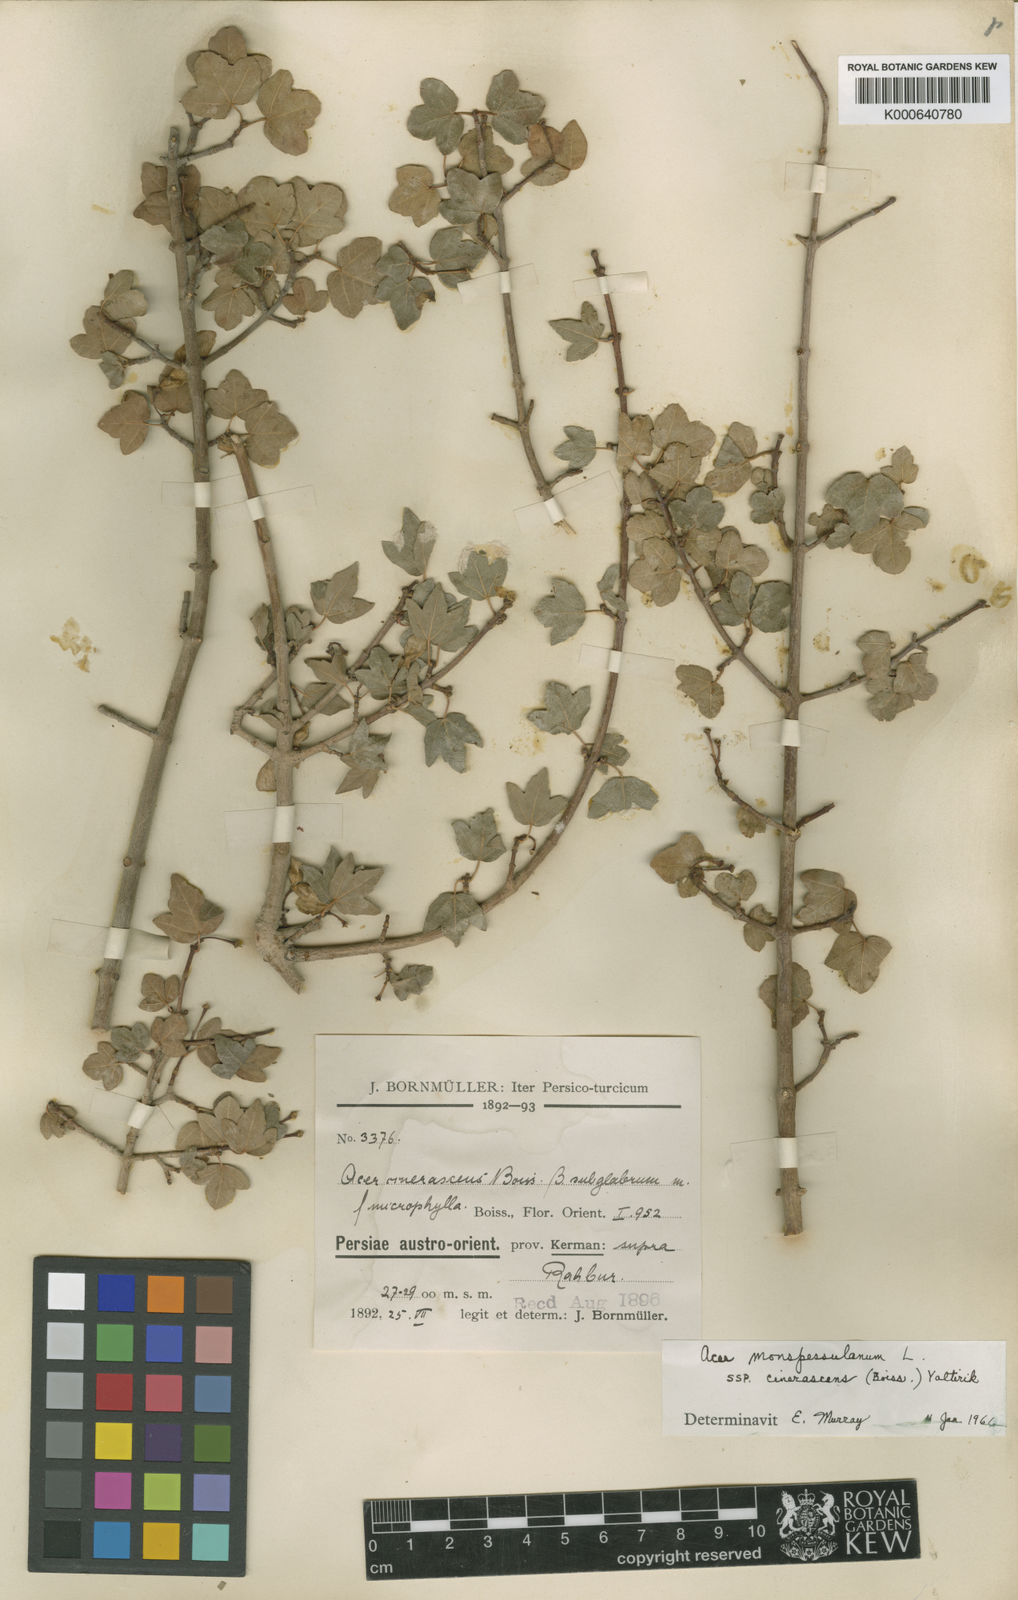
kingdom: Plantae
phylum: Tracheophyta
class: Magnoliopsida
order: Sapindales
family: Sapindaceae
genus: Acer
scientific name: Acer monspessulanum
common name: Montpellier maple
